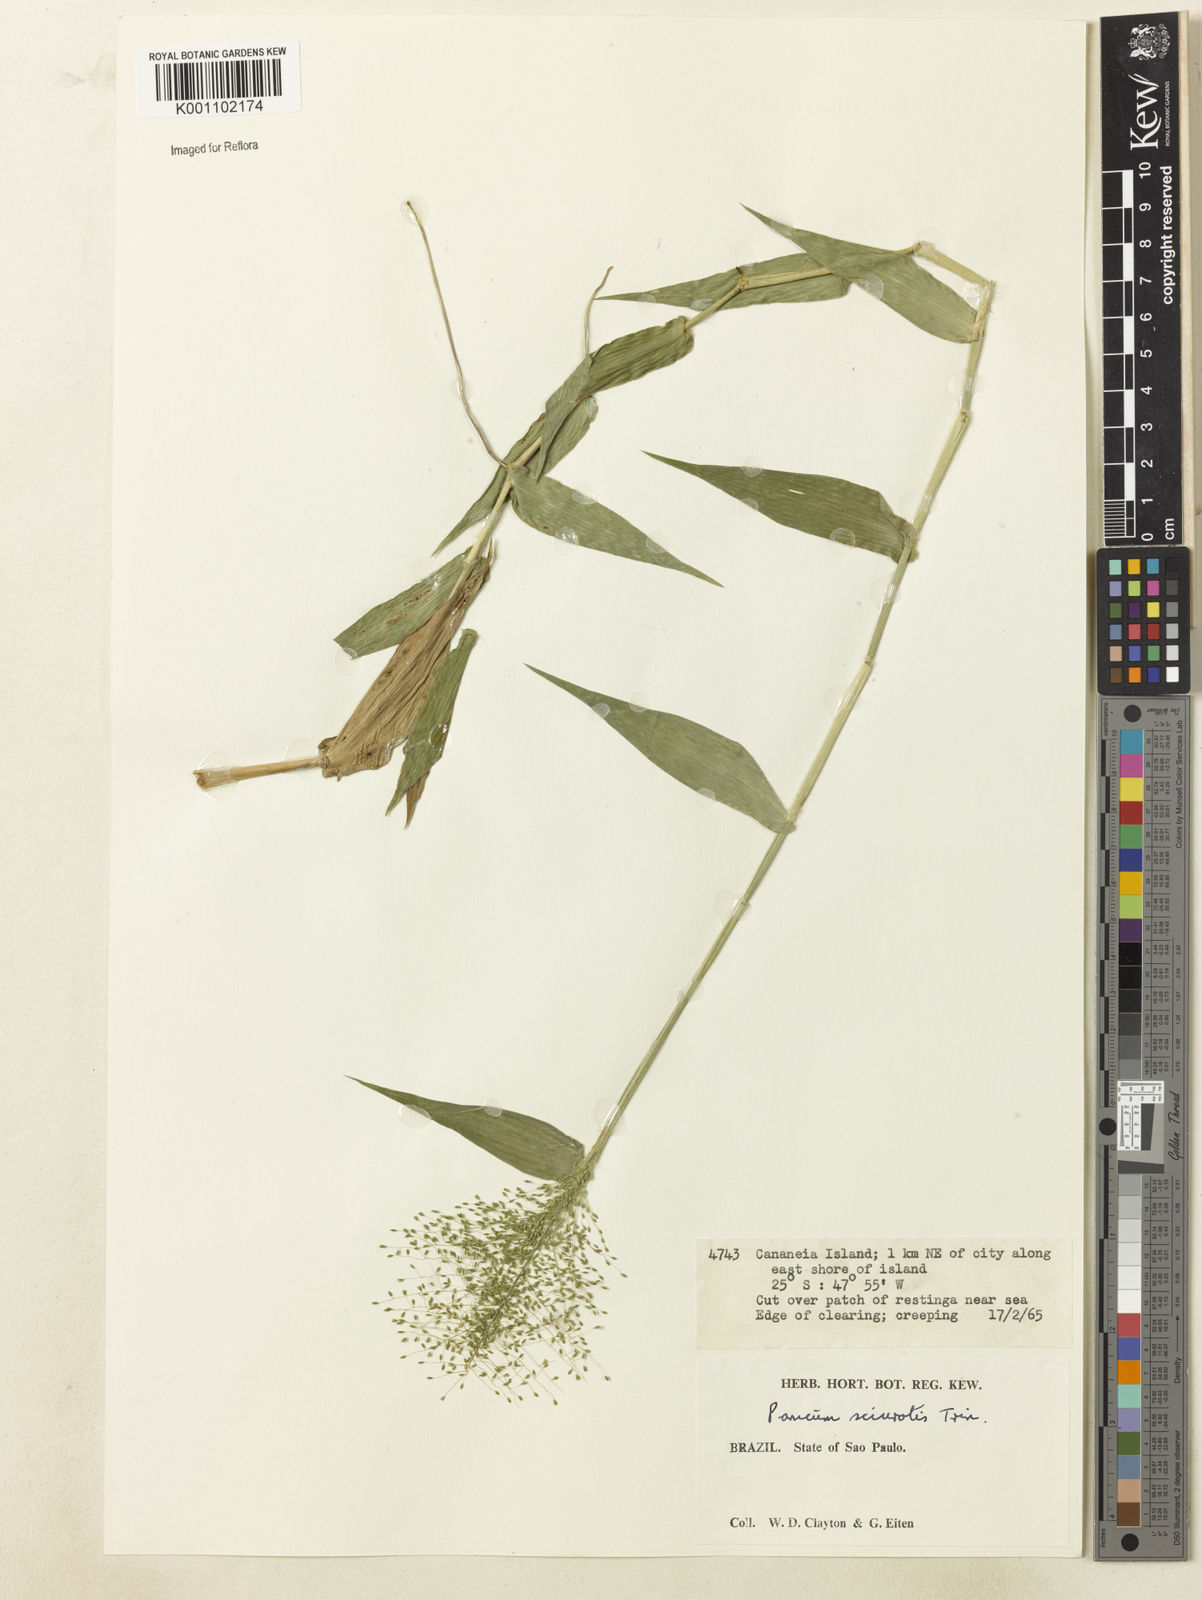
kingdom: Plantae
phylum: Tracheophyta
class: Liliopsida
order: Poales
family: Poaceae
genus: Dichanthelium
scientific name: Dichanthelium sciurotoides
